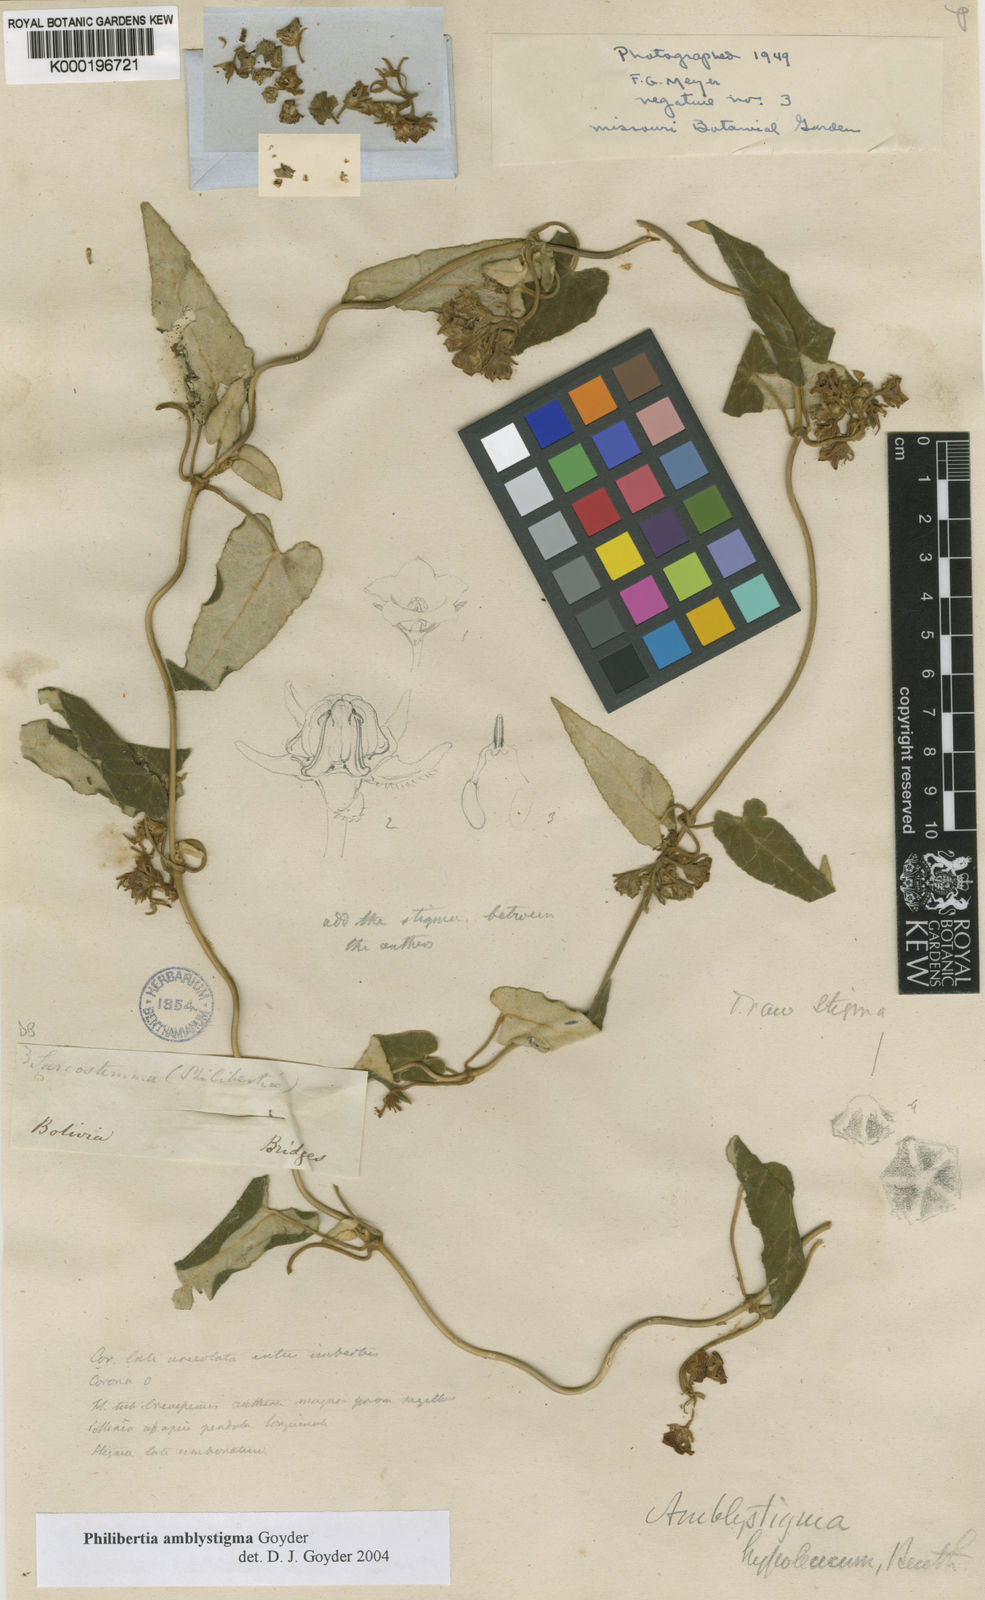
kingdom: Plantae
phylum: Tracheophyta
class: Magnoliopsida
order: Gentianales
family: Apocynaceae
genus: Philibertia
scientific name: Philibertia amblystigma
